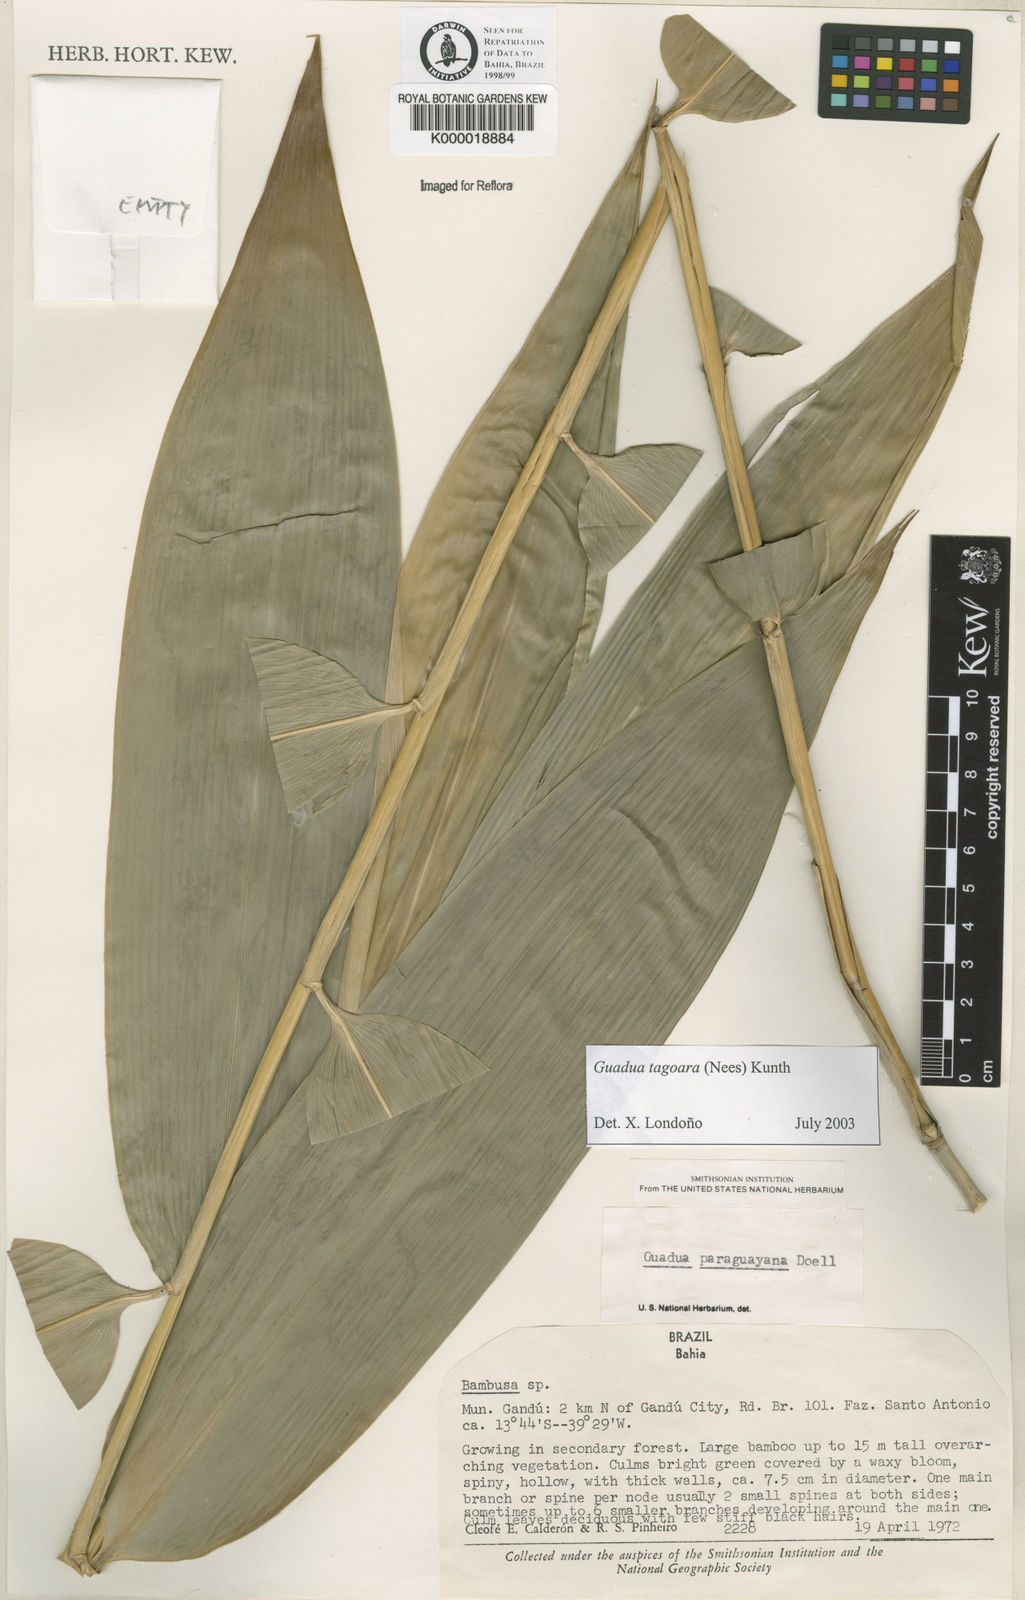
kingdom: Plantae
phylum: Tracheophyta
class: Liliopsida
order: Poales
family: Poaceae
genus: Guadua
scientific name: Guadua tagoara
